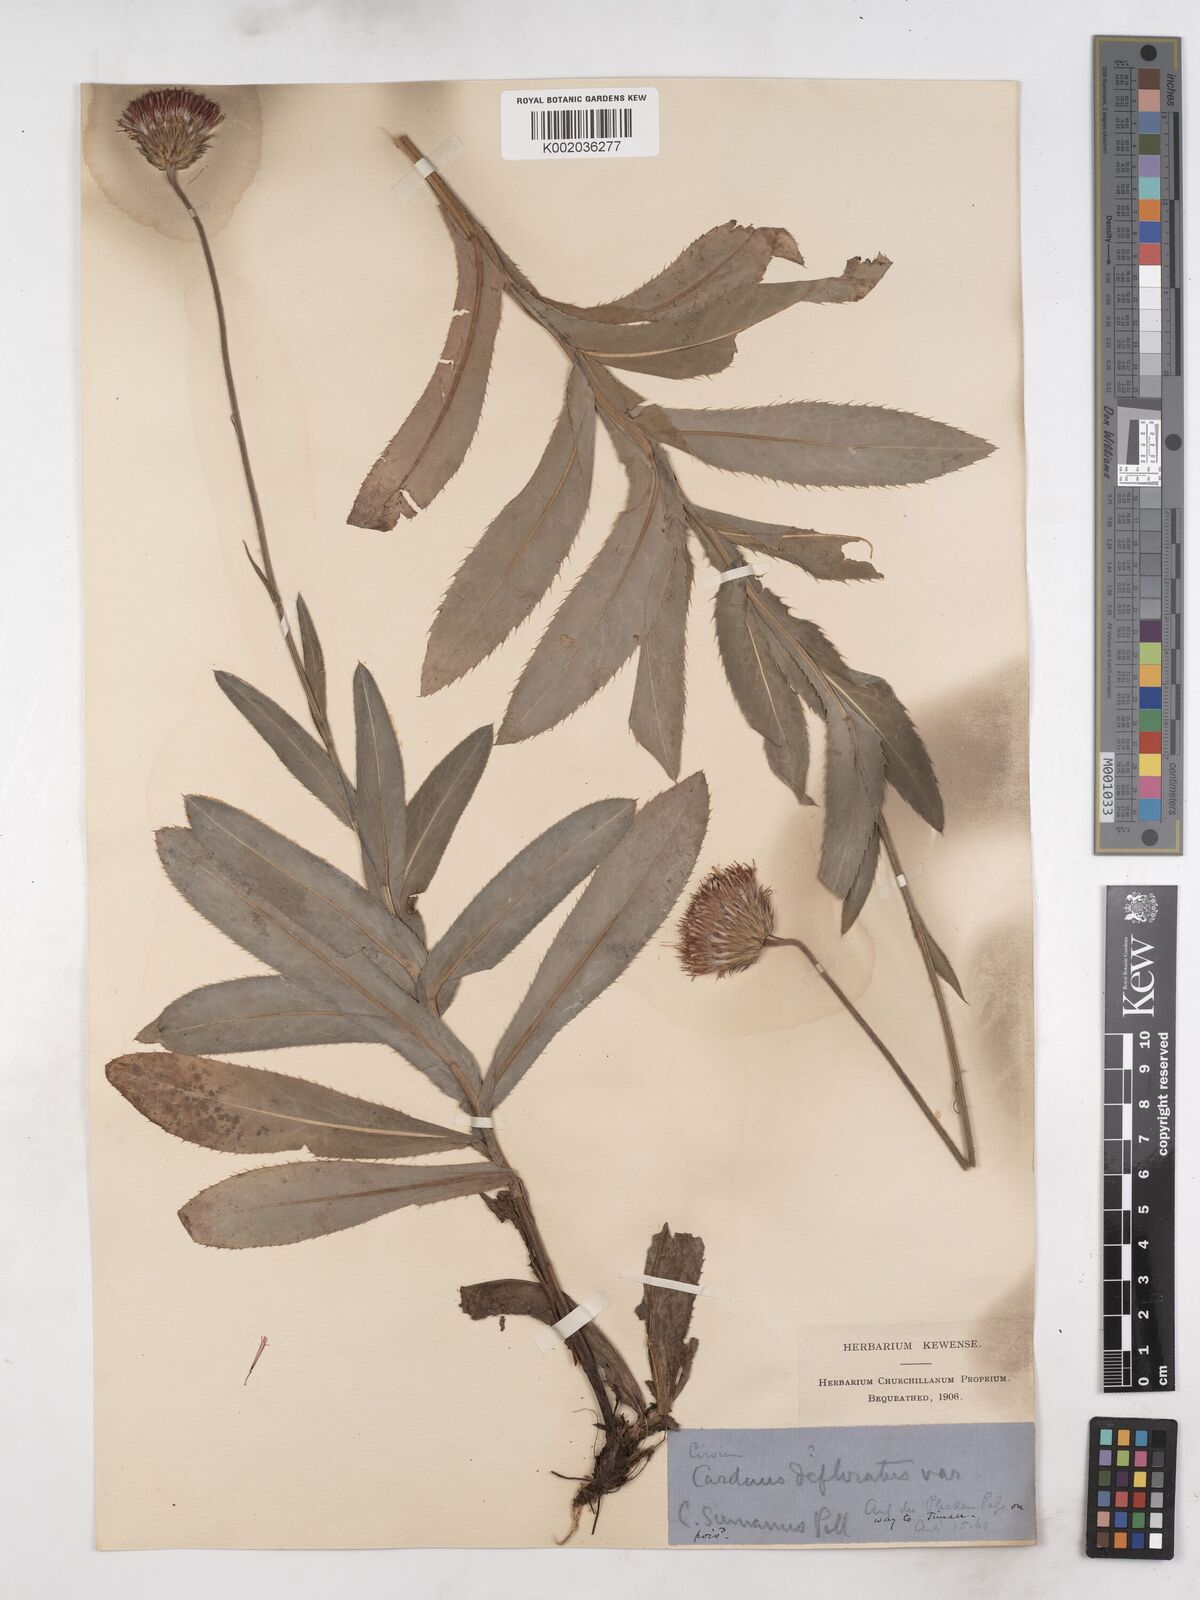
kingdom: Plantae
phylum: Tracheophyta
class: Magnoliopsida
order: Asterales
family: Asteraceae
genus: Carduus
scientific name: Carduus defloratus
